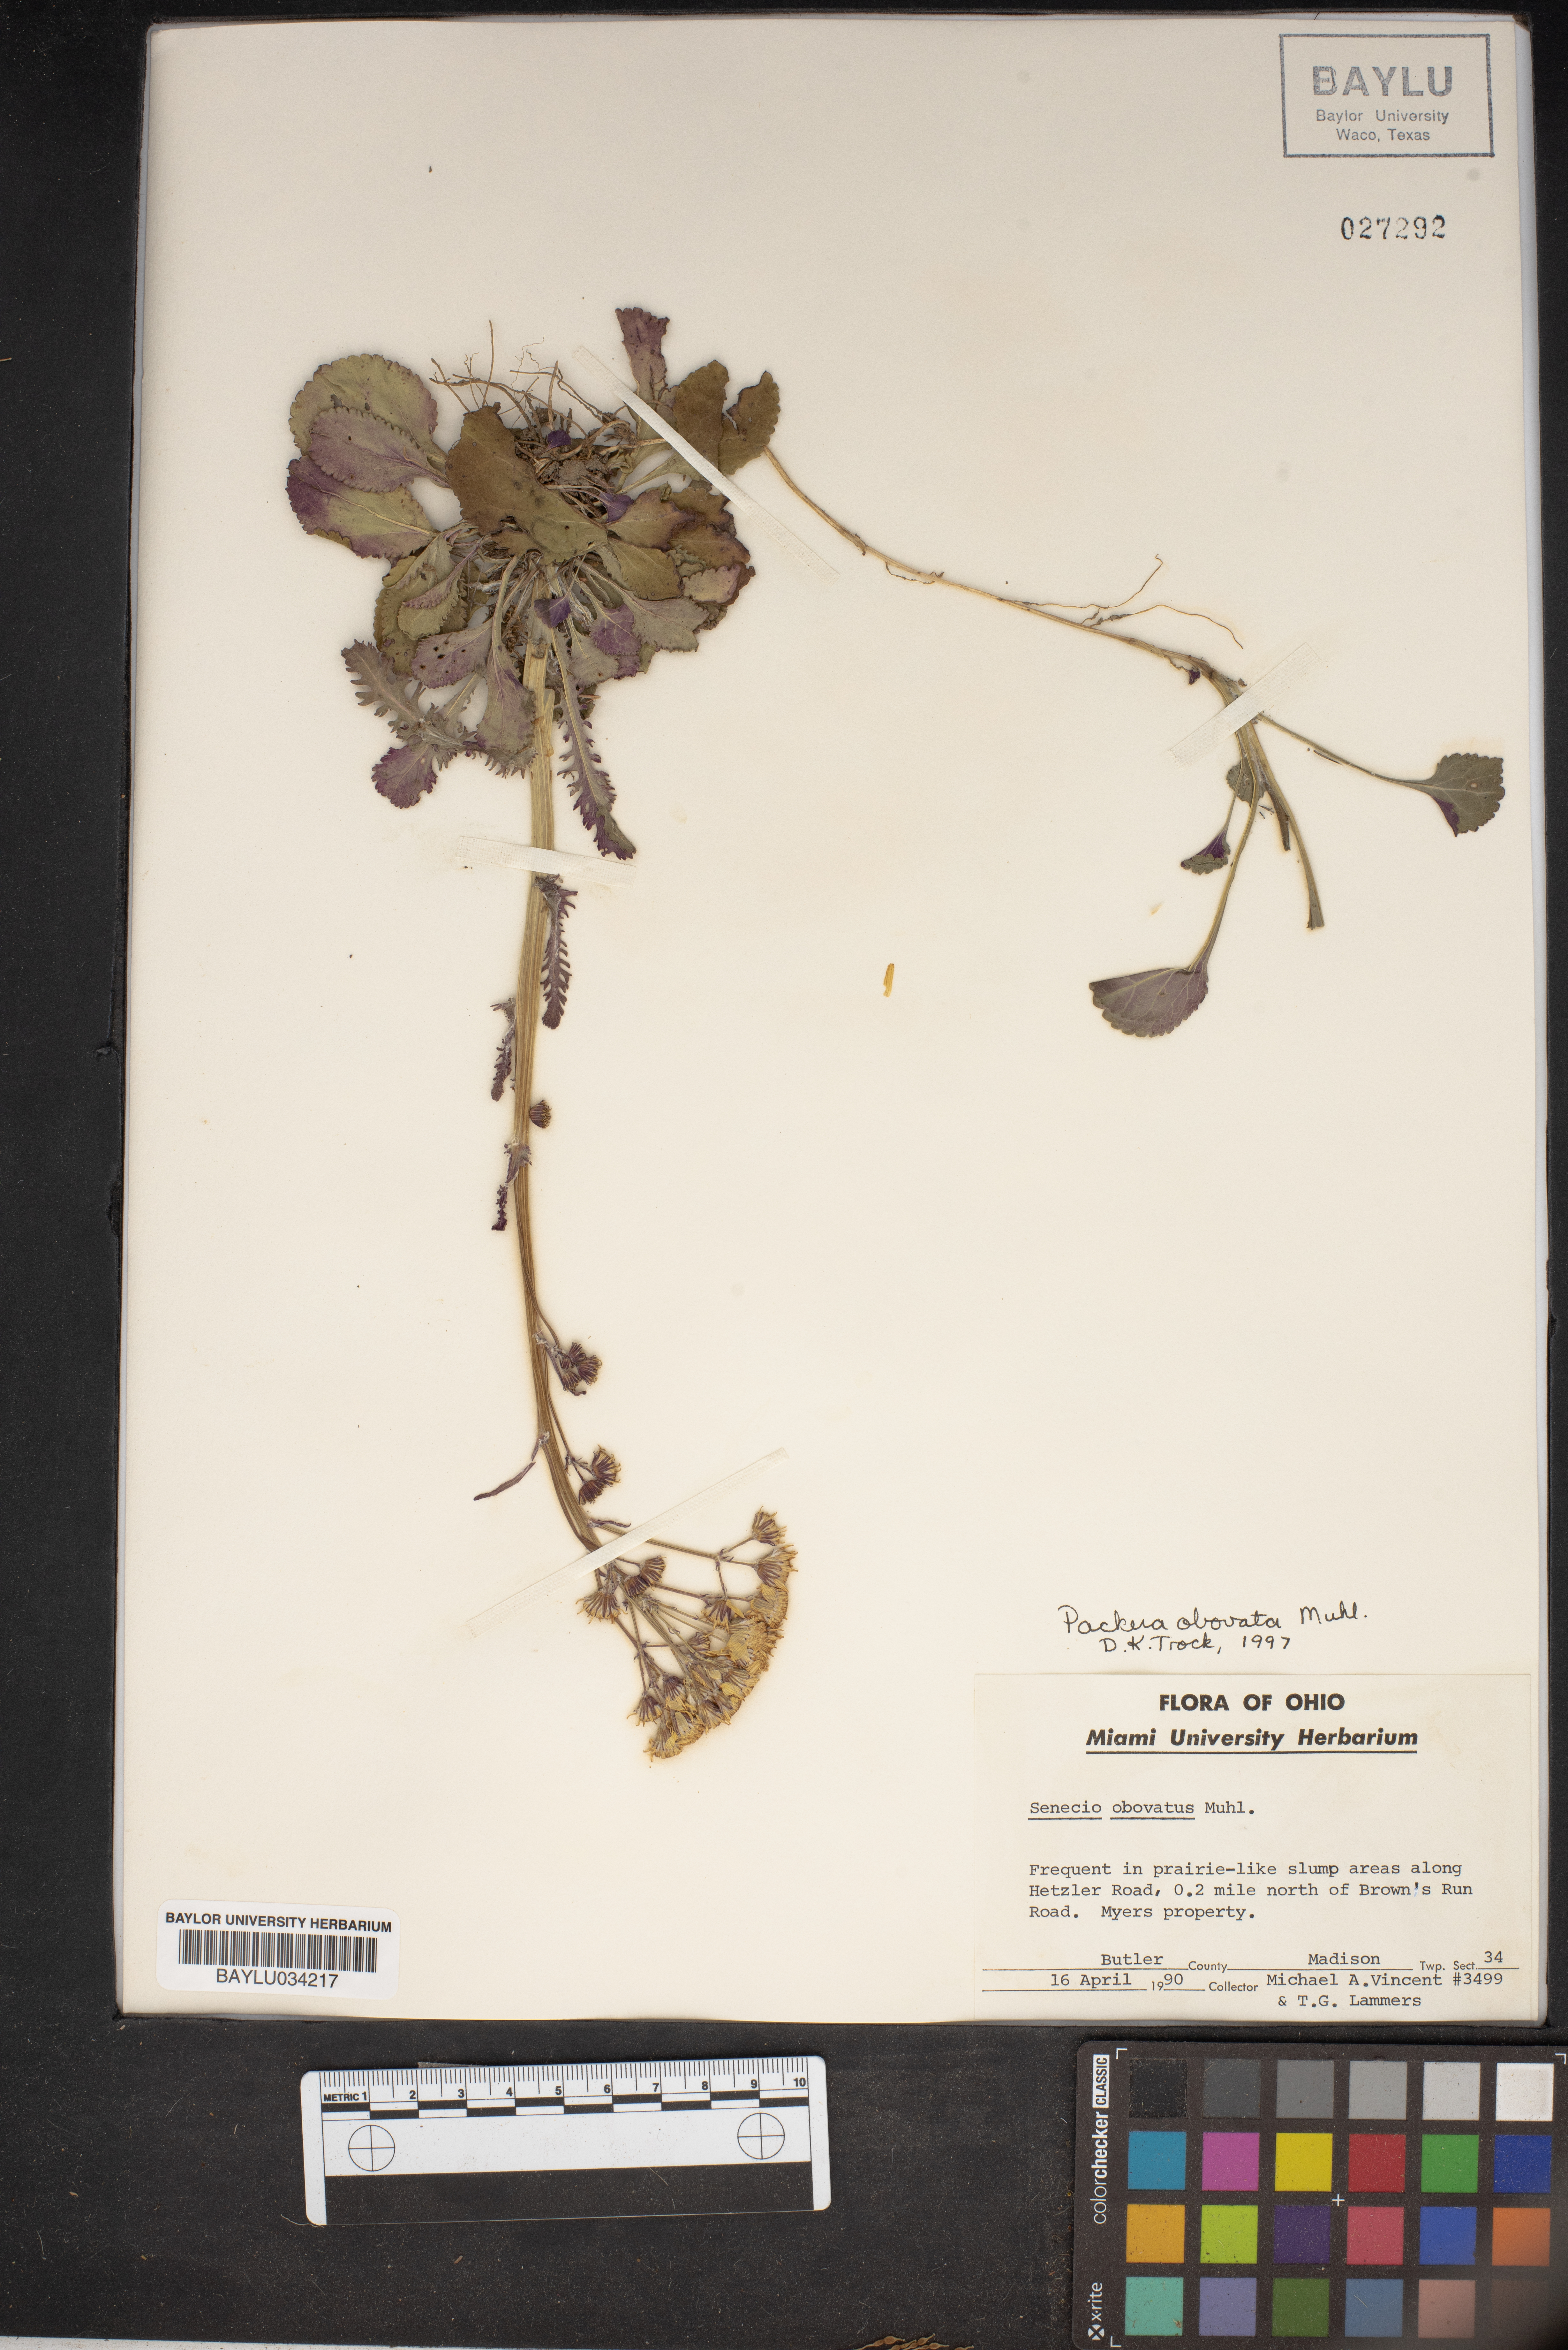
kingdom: Plantae
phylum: Tracheophyta
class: Magnoliopsida
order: Asterales
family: Asteraceae
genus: Senecio
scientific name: Senecio provincialis
